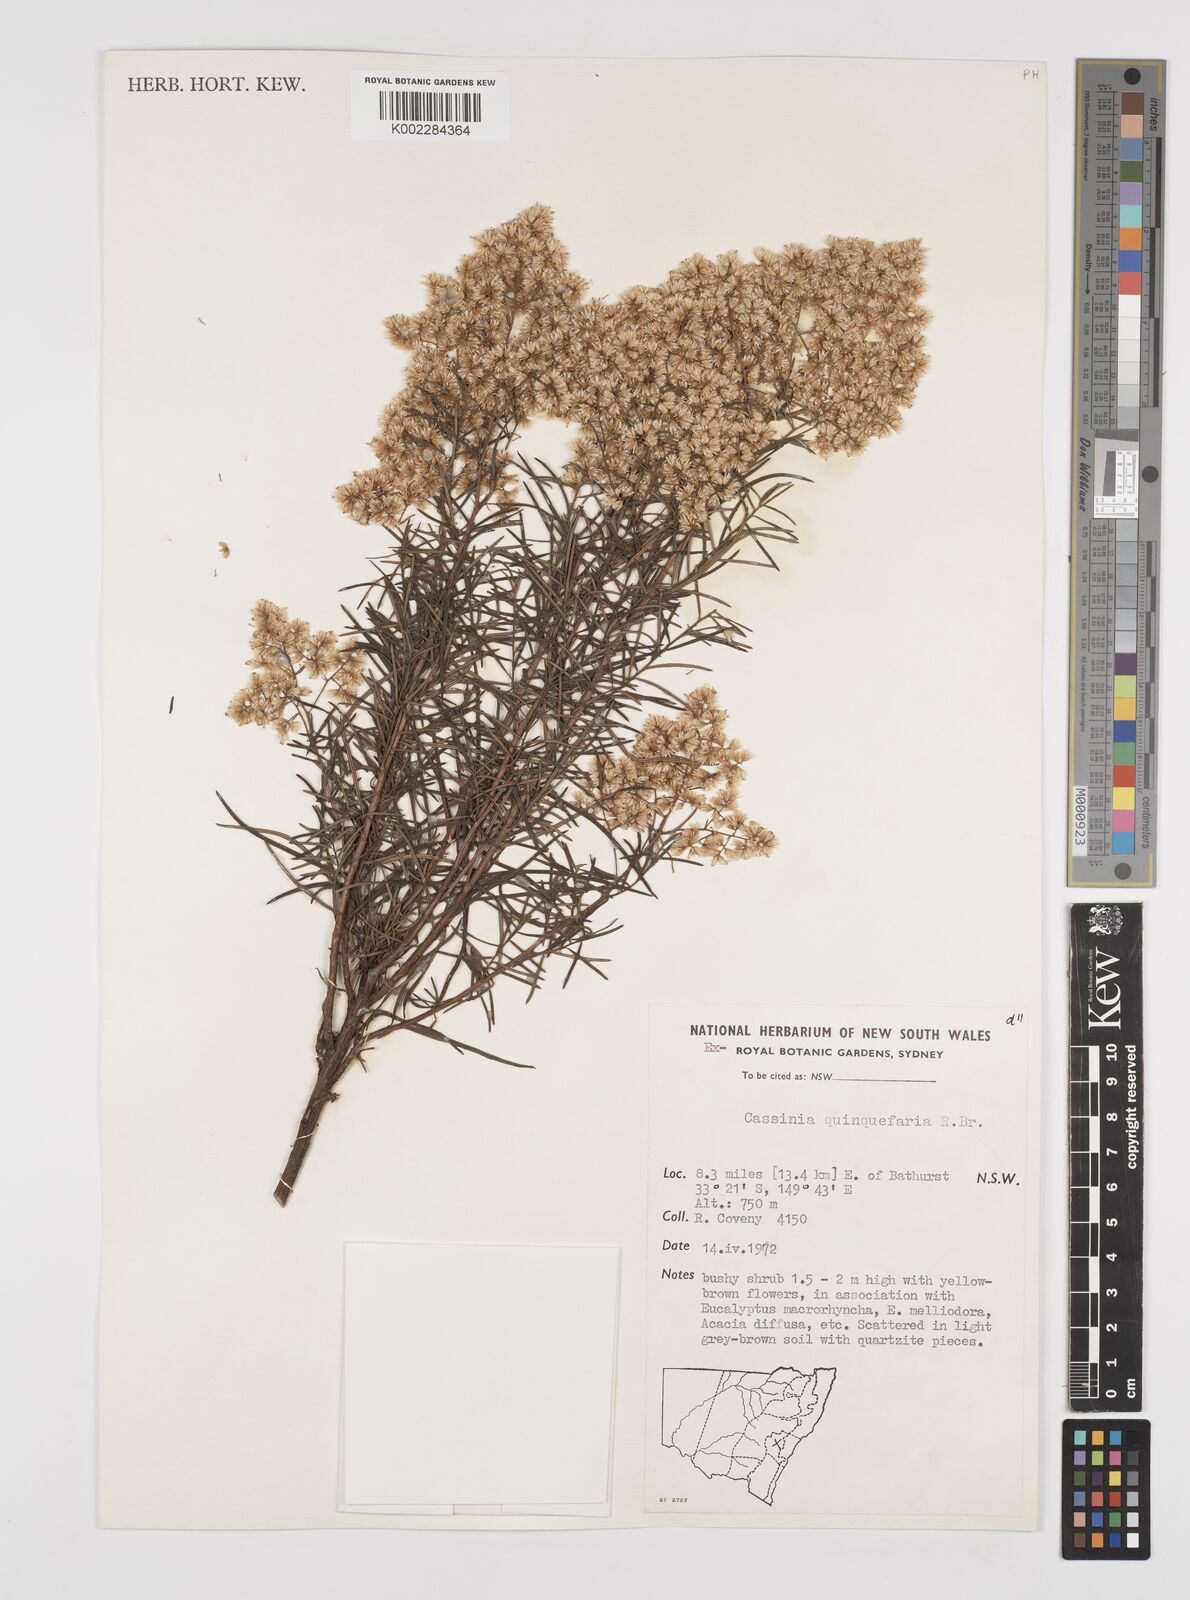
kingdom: Plantae
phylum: Tracheophyta
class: Magnoliopsida
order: Asterales
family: Asteraceae
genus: Cassinia
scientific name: Cassinia quinquefaria
